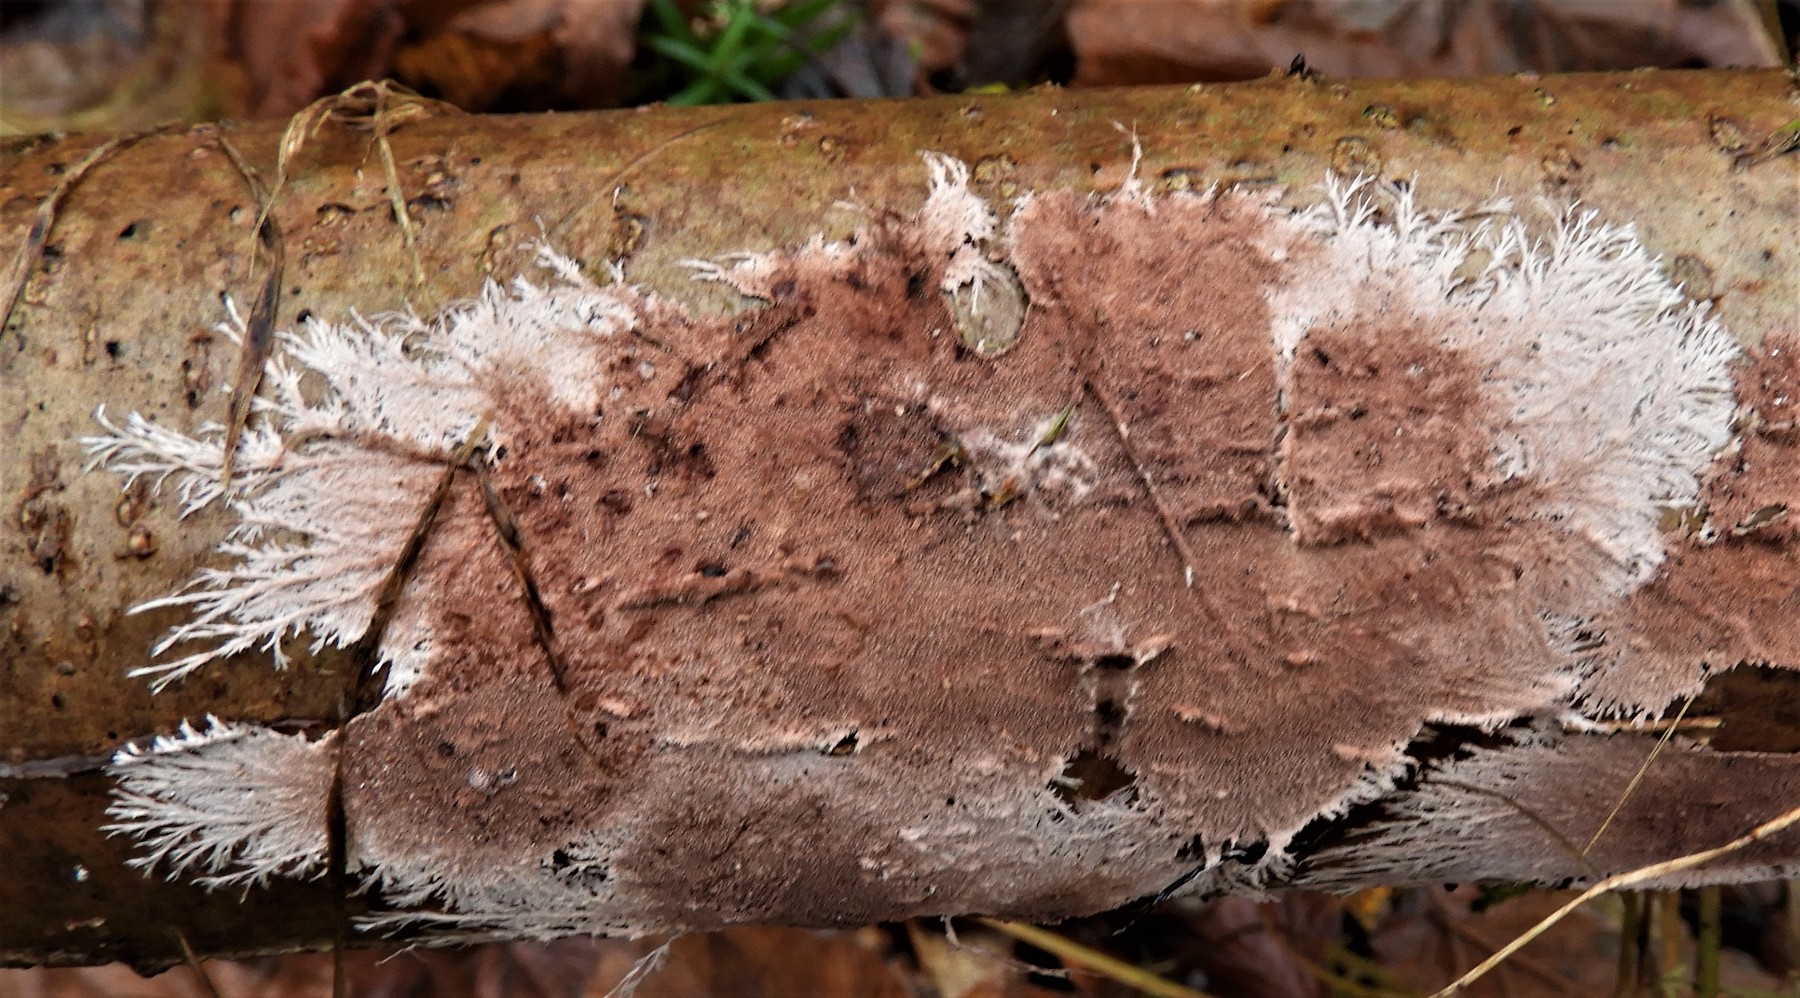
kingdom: Fungi
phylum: Basidiomycota
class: Agaricomycetes
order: Polyporales
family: Steccherinaceae
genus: Steccherinum
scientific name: Steccherinum fimbriatum
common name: trådet skønpig
